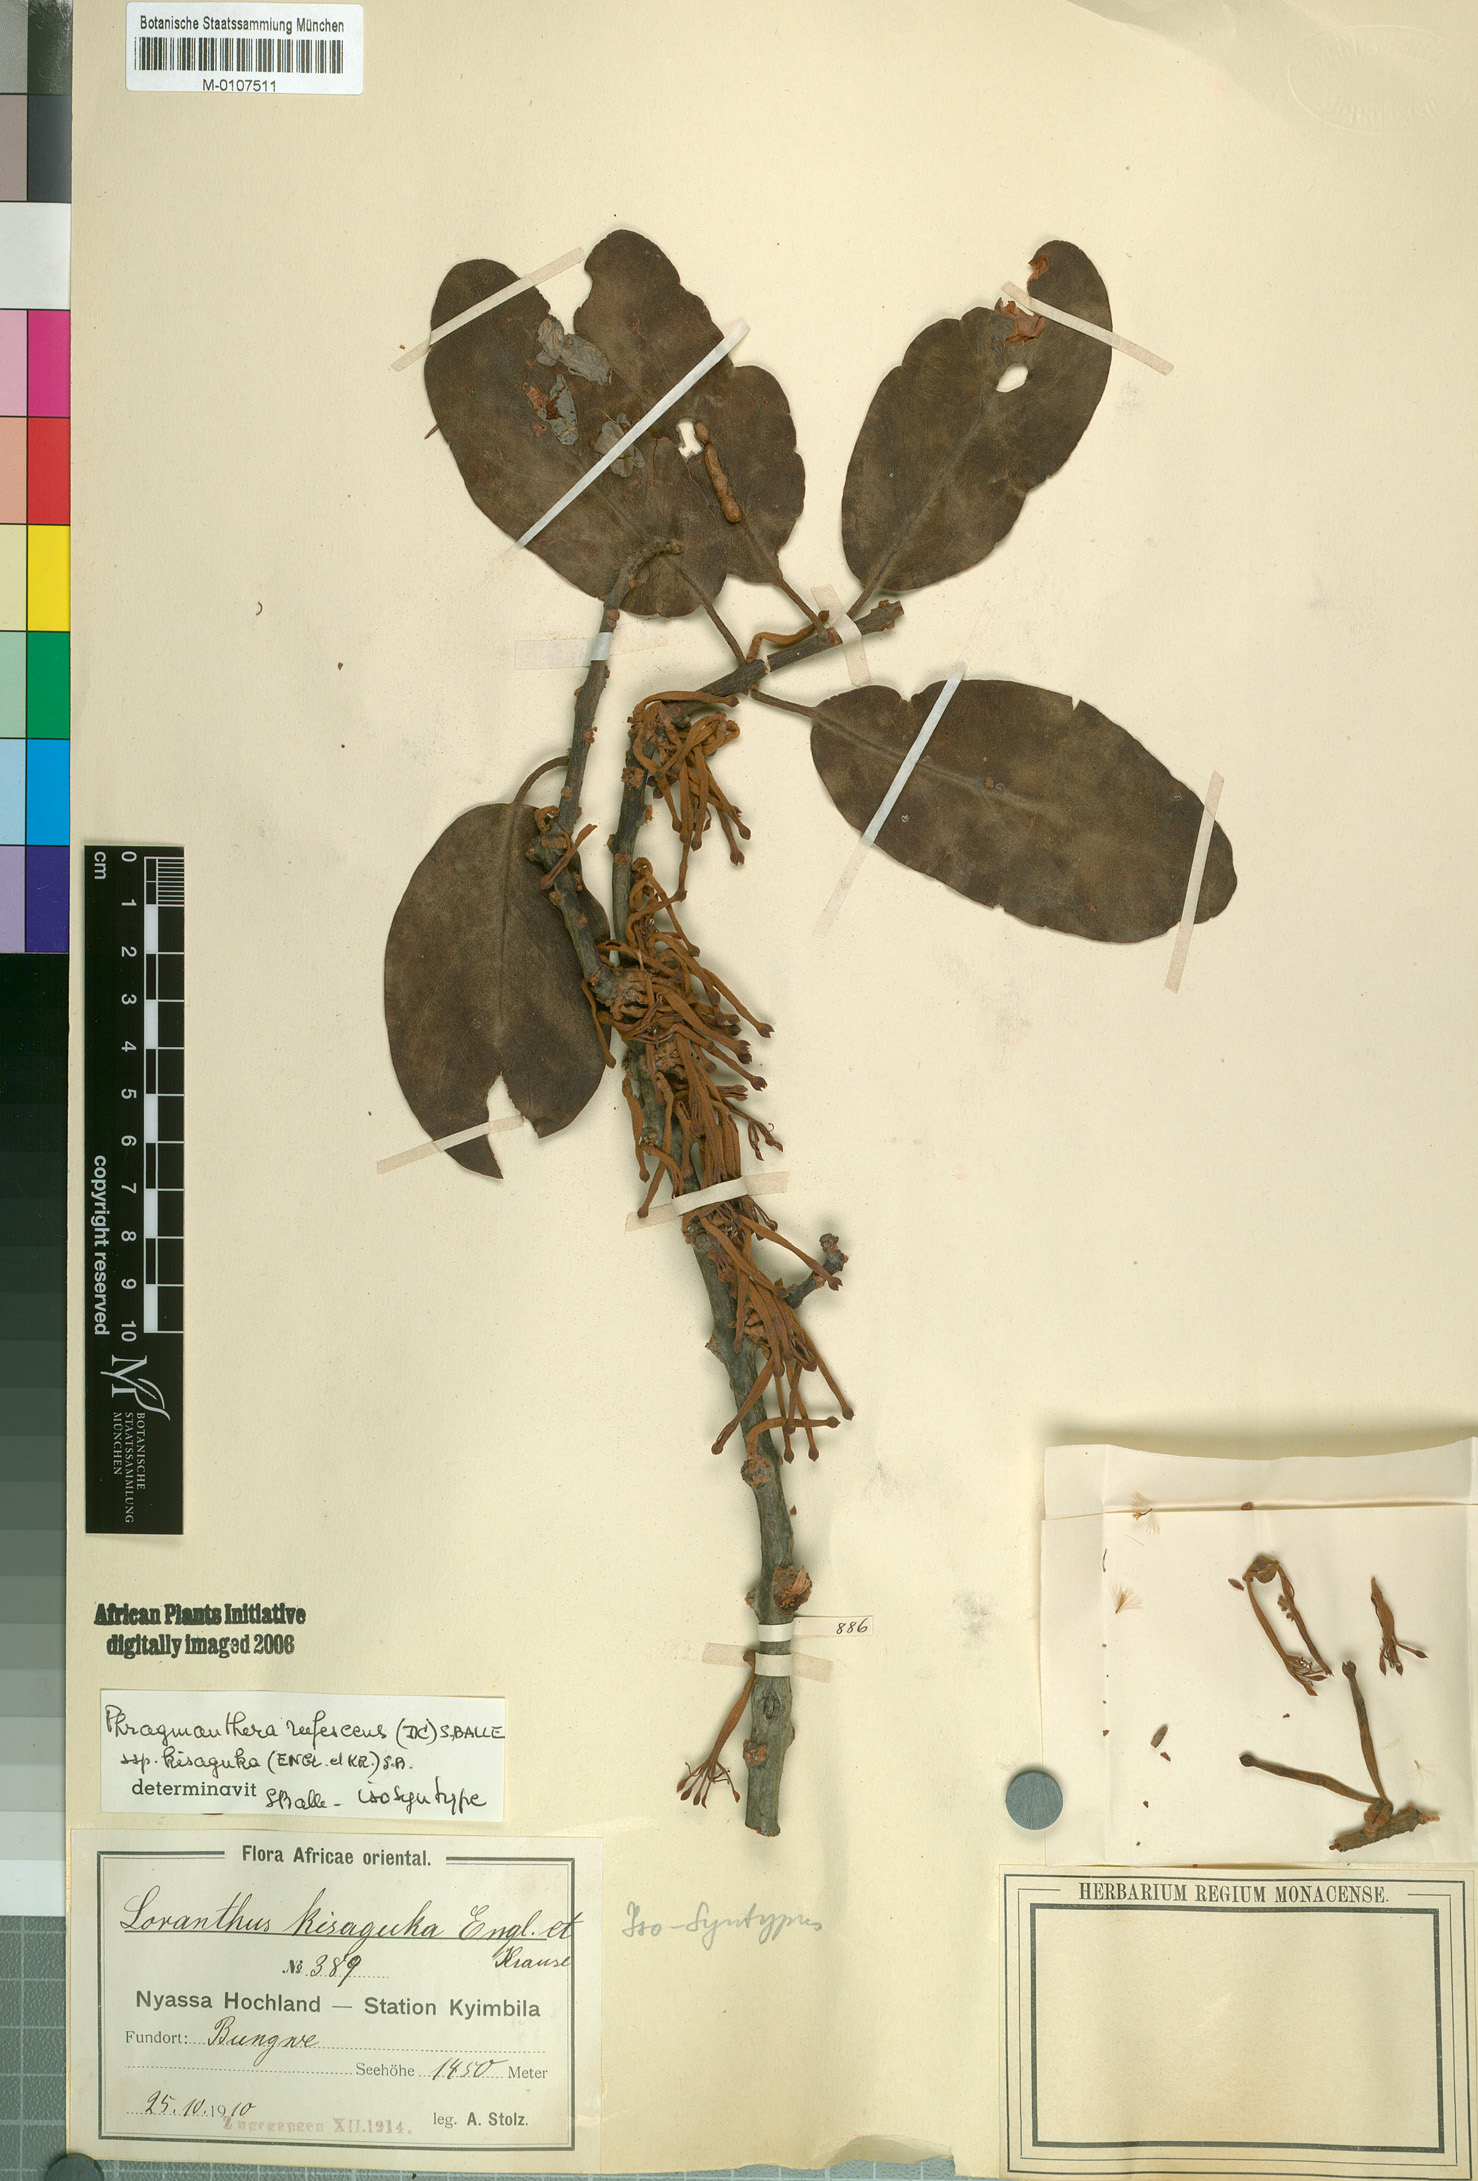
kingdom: Plantae
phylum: Tracheophyta
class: Magnoliopsida
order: Santalales
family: Loranthaceae
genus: Phragmanthera
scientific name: Phragmanthera usuiensis
